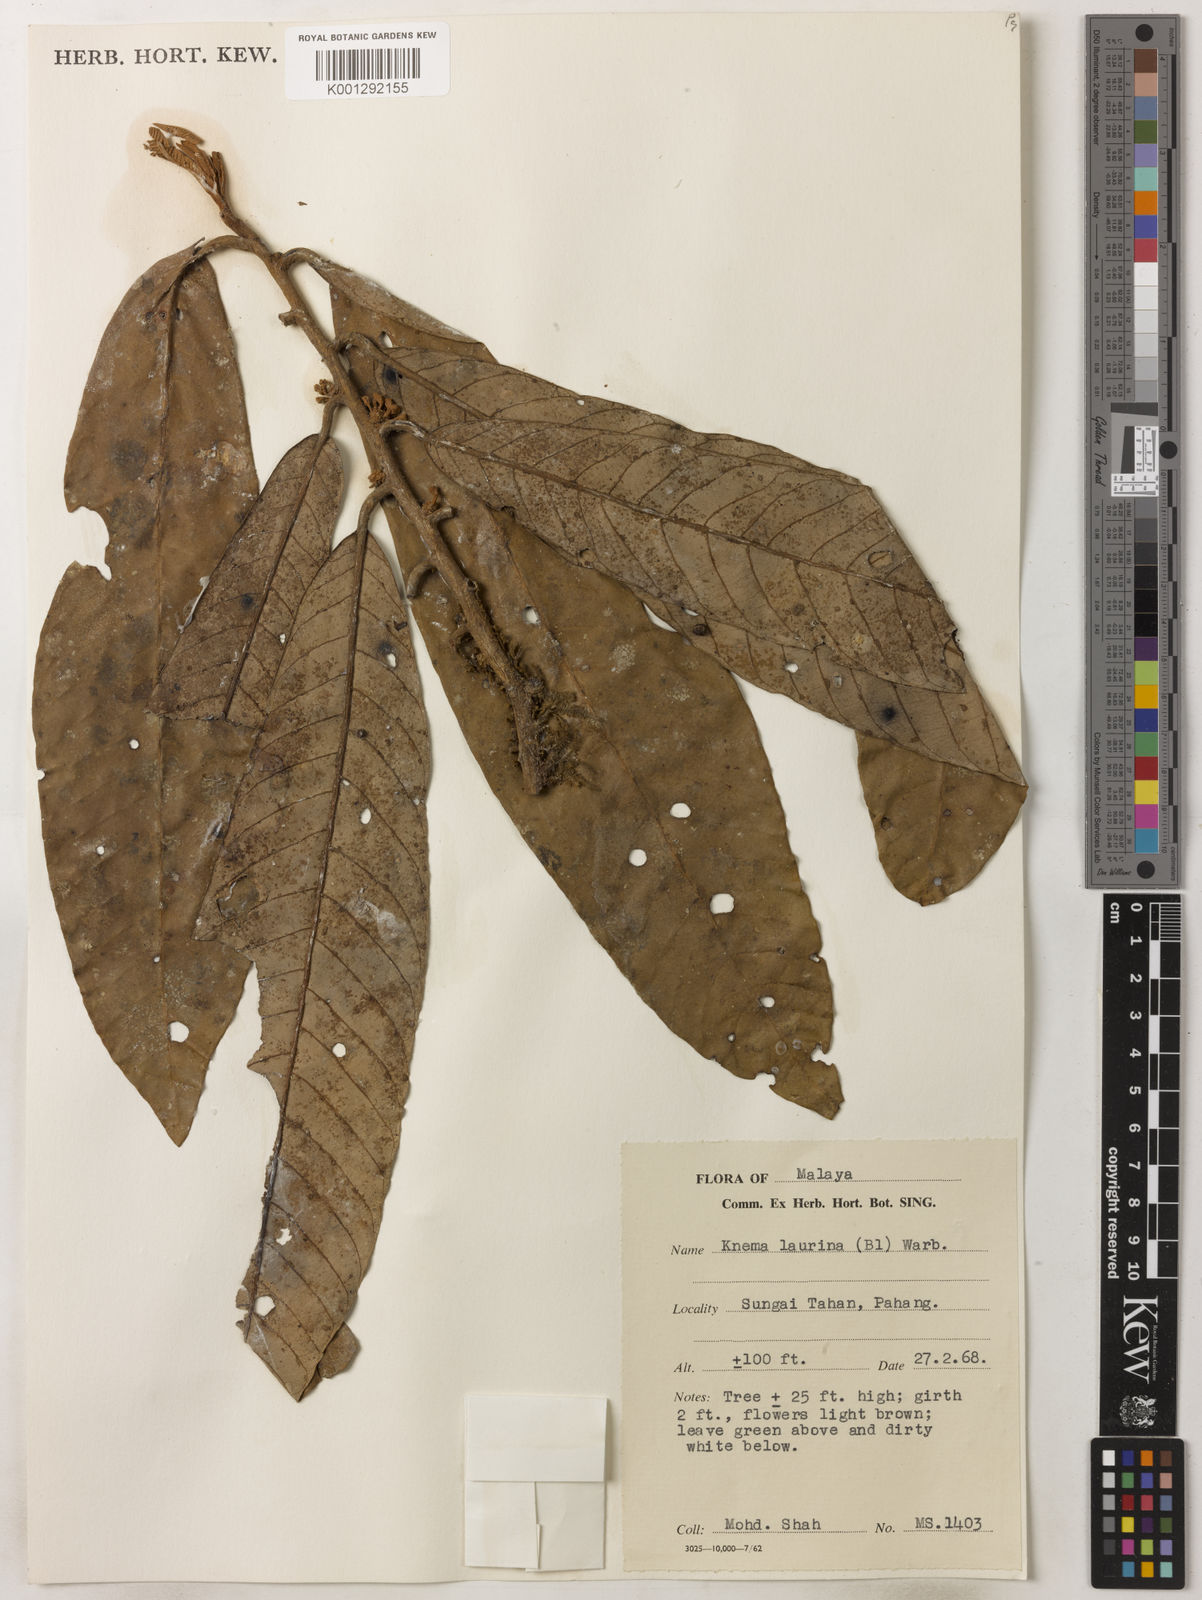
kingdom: Plantae
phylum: Tracheophyta
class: Magnoliopsida
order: Magnoliales
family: Myristicaceae
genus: Knema
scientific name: Knema laurina
